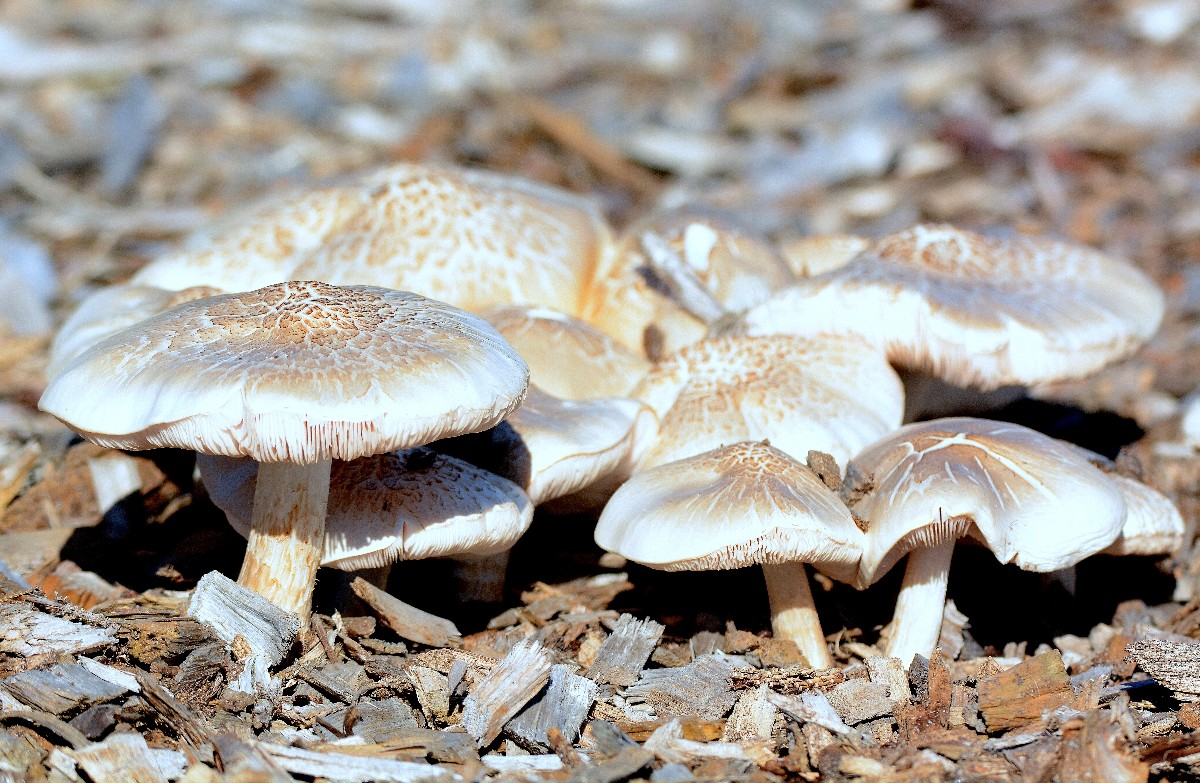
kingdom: Fungi
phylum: Basidiomycota
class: Agaricomycetes
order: Agaricales
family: Pluteaceae
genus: Pluteus
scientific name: Pluteus petasatus
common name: savsmulds-skærmhat
